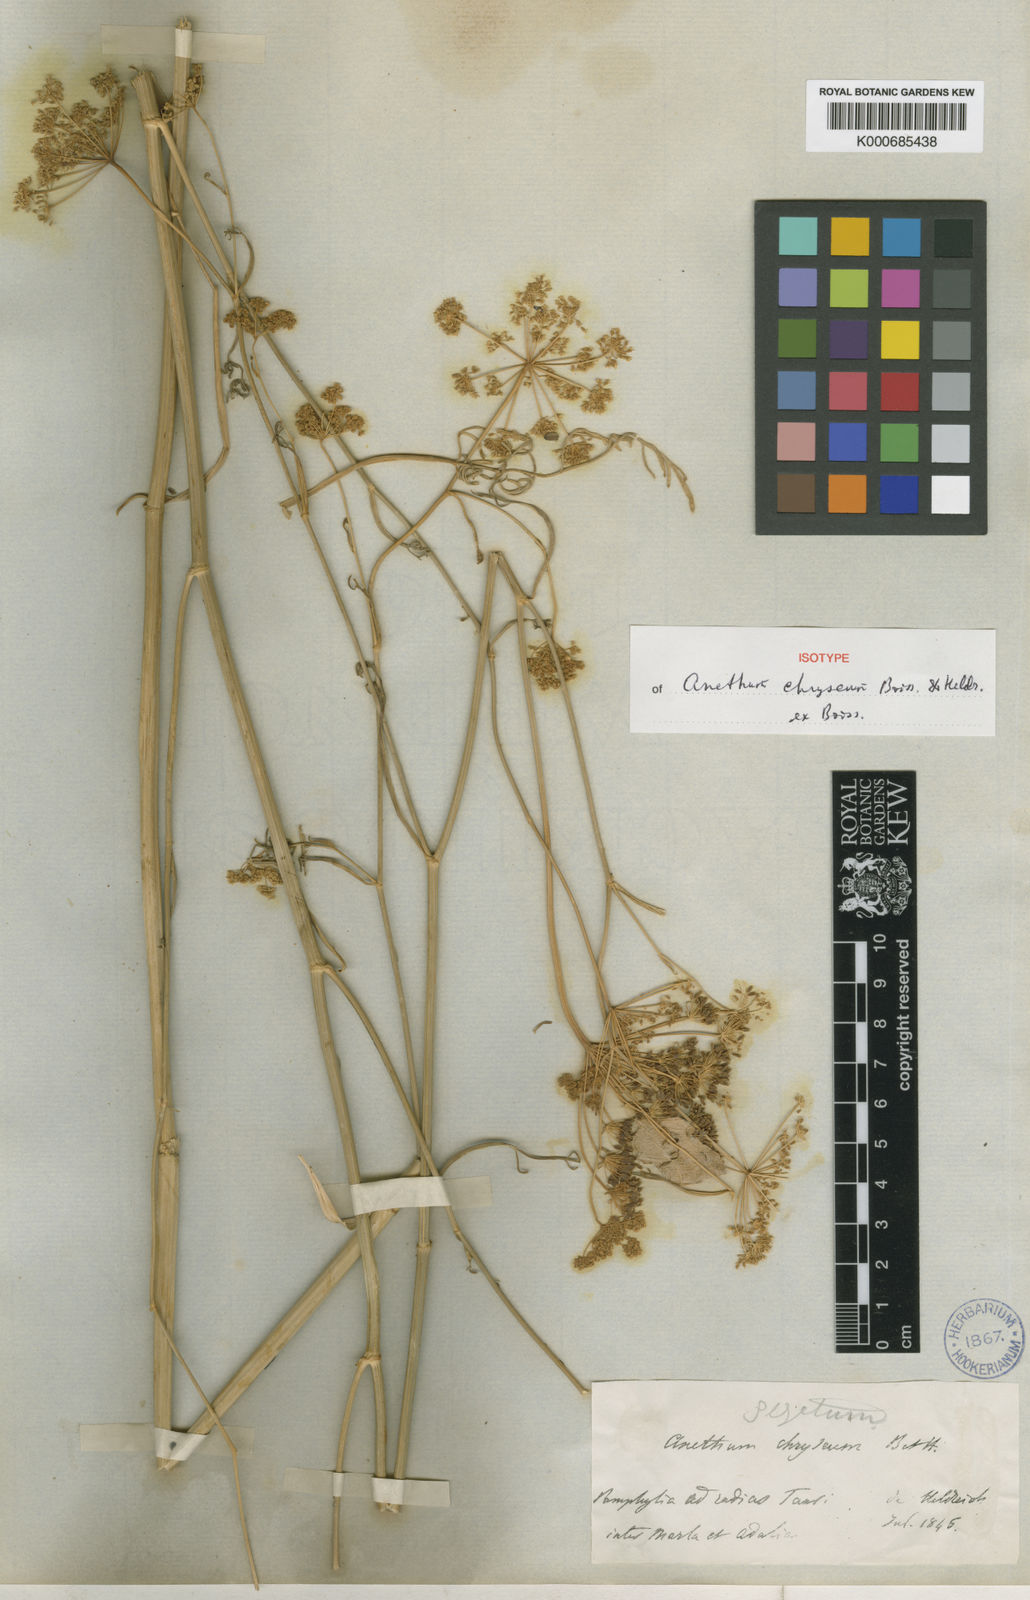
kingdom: Plantae
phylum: Tracheophyta
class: Magnoliopsida
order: Apiales
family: Apiaceae
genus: Dichoropetalum
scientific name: Dichoropetalum chryseum
